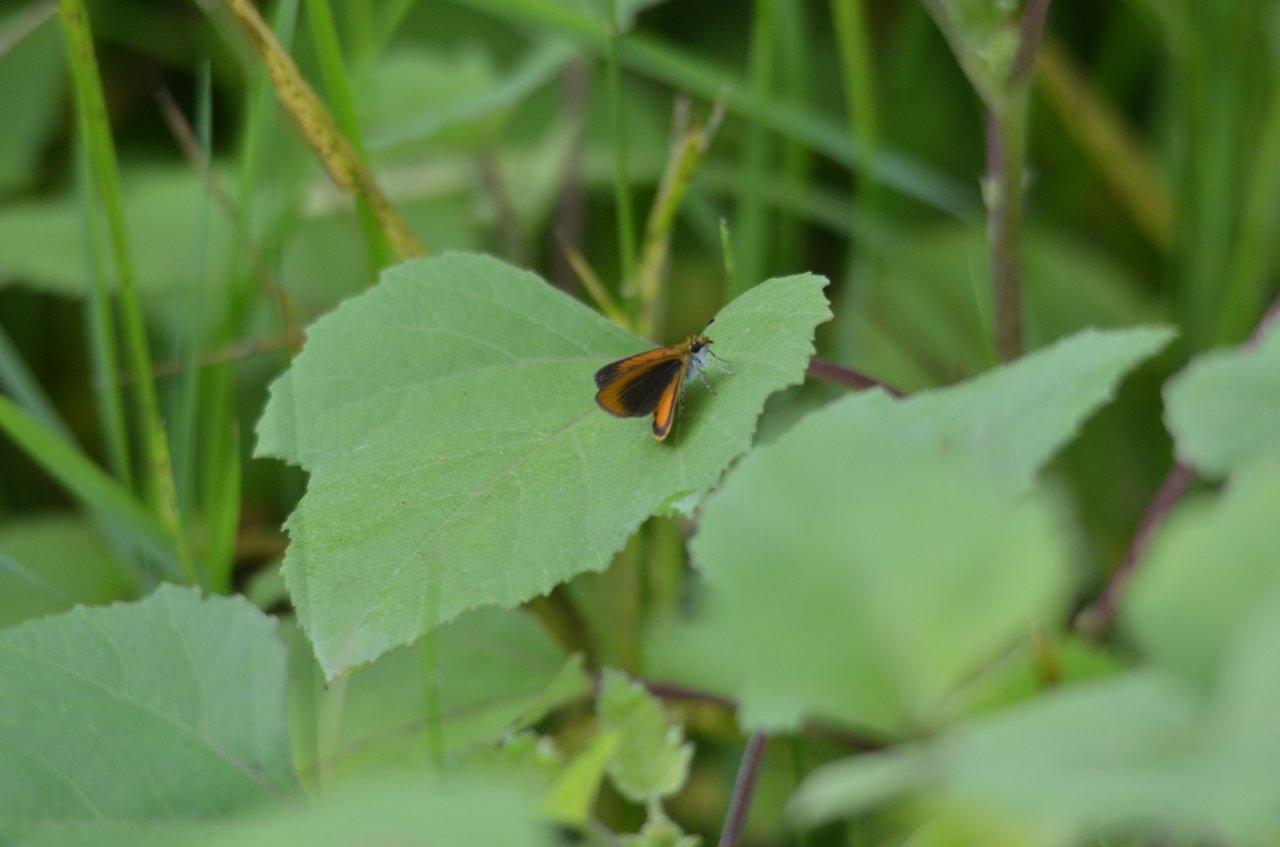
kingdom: Animalia
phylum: Arthropoda
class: Insecta
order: Lepidoptera
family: Hesperiidae
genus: Ancyloxypha
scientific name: Ancyloxypha numitor
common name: Least Skipper
